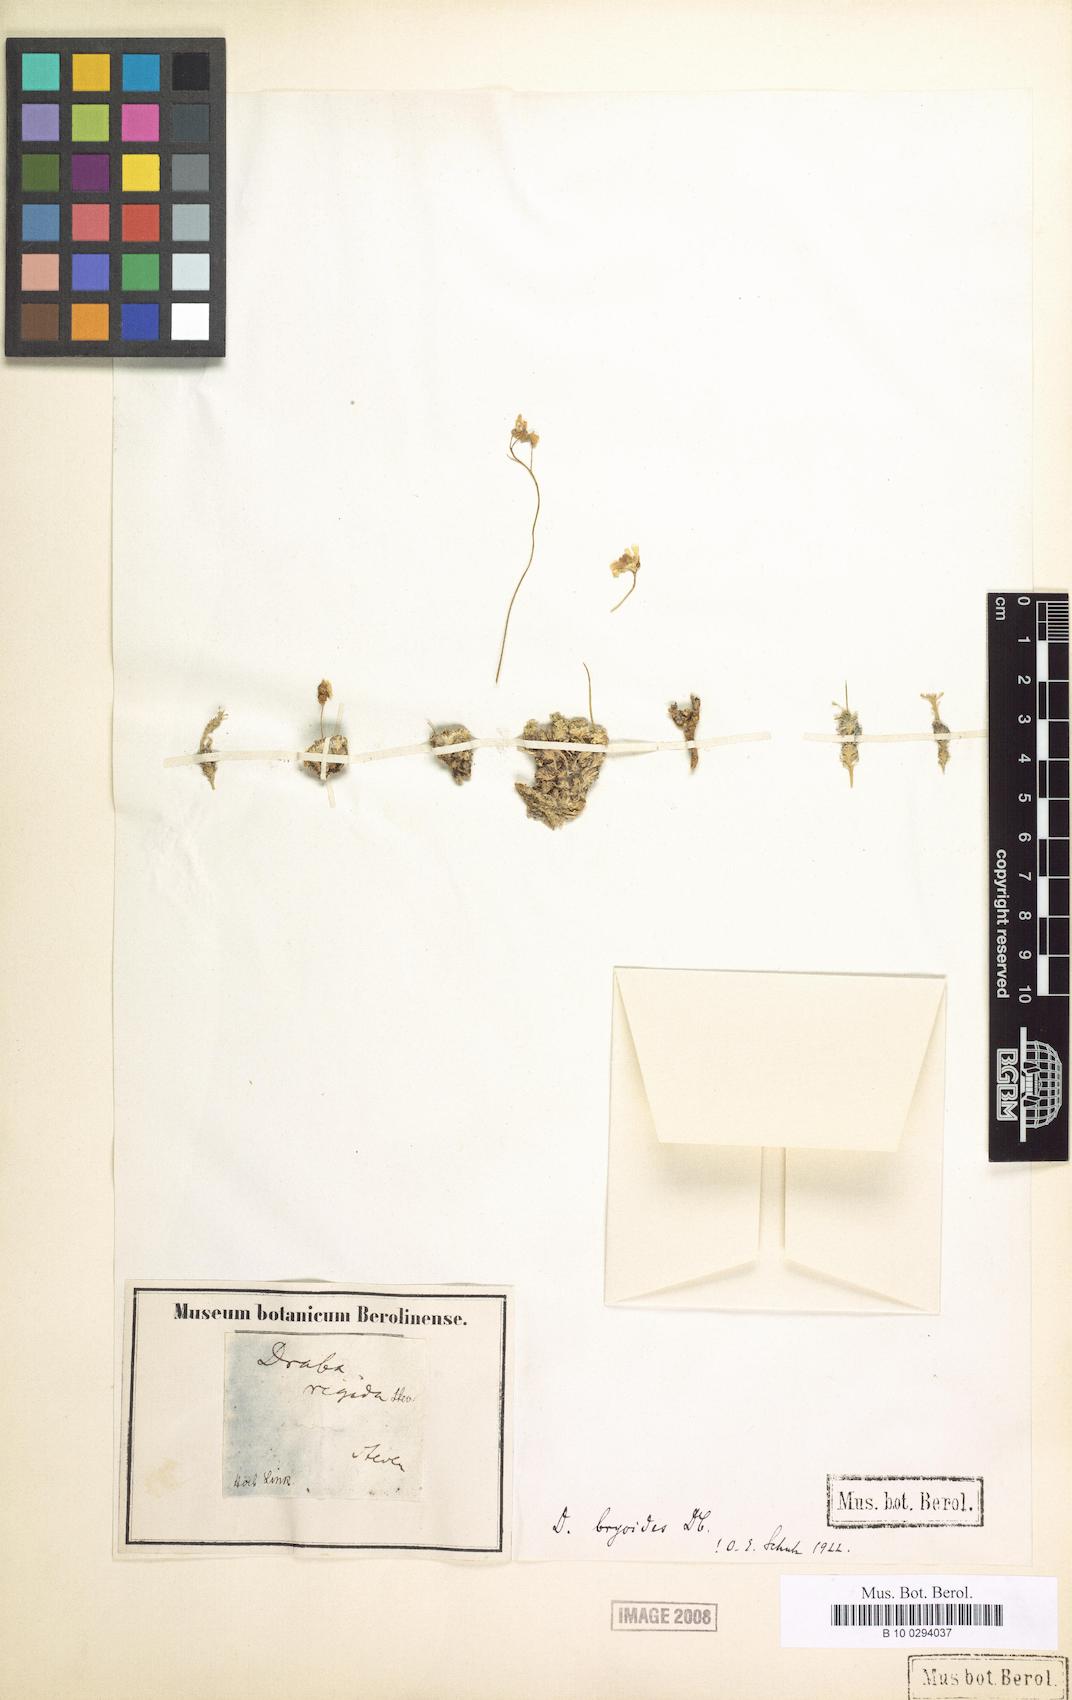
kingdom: Plantae
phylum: Tracheophyta
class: Magnoliopsida
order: Brassicales
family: Brassicaceae
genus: Draba
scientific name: Draba rigida
